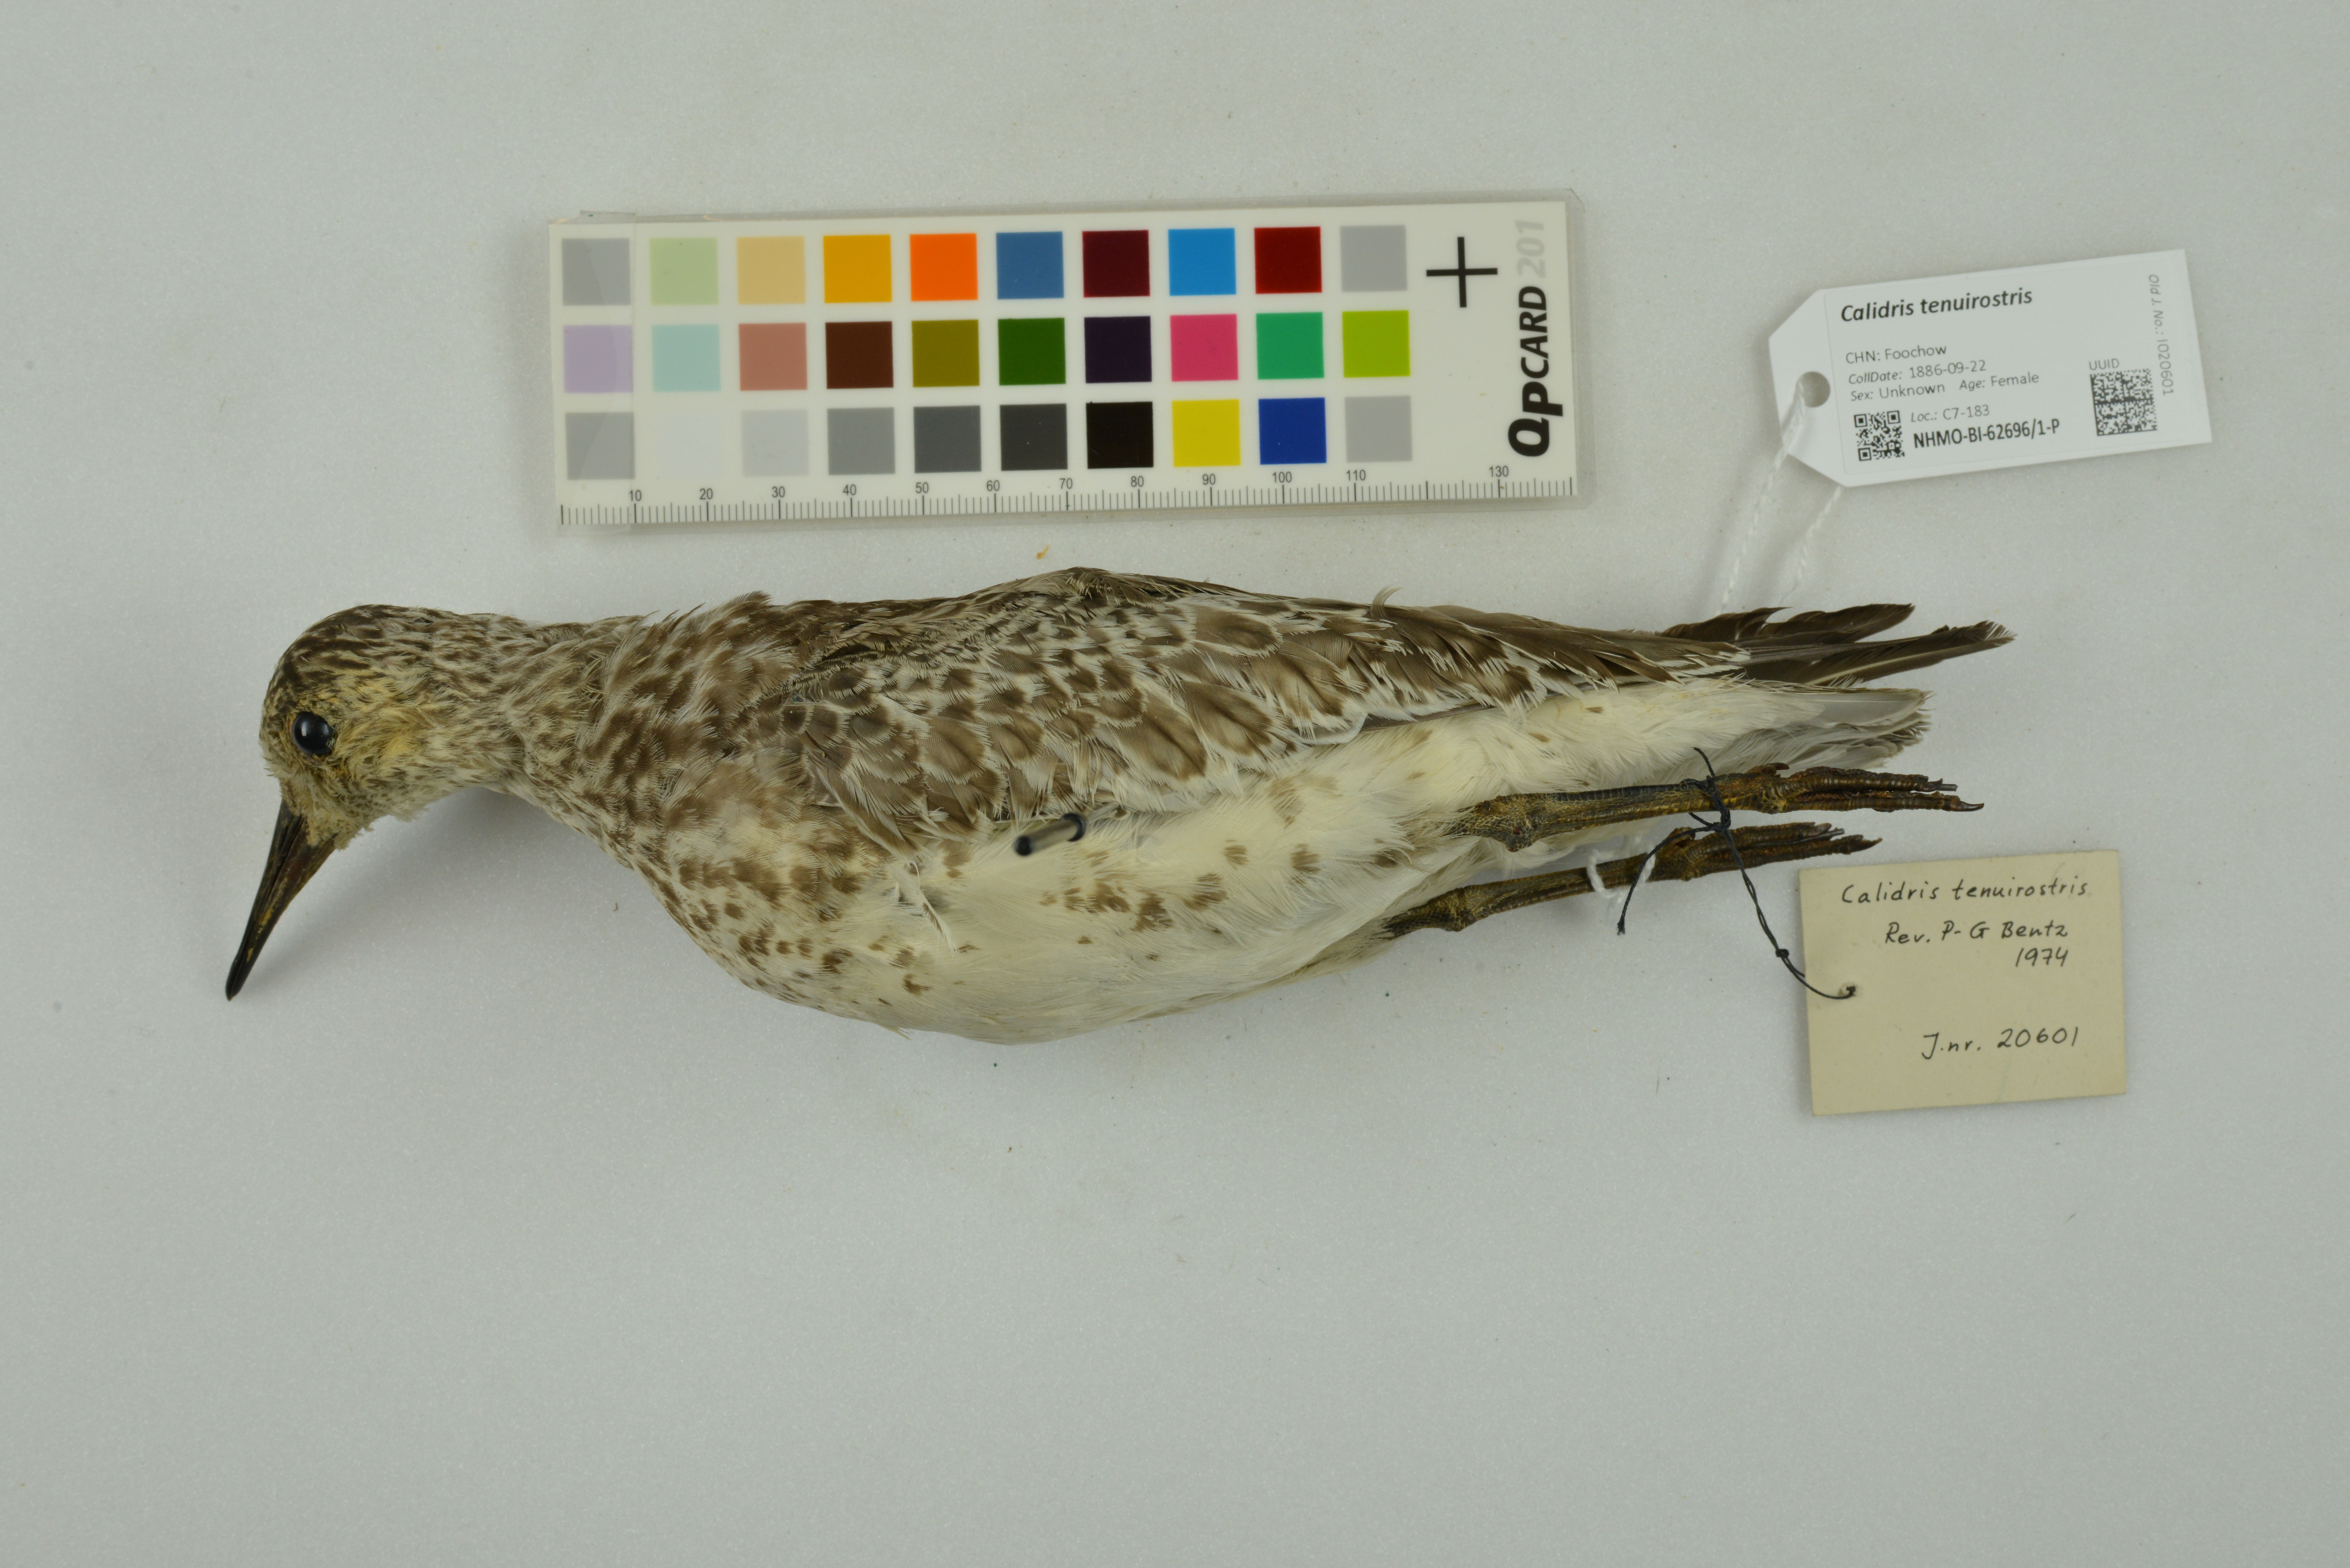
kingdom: Animalia
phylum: Chordata
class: Aves
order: Charadriiformes
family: Scolopacidae
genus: Calidris
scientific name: Calidris tenuirostris
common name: Great knot
